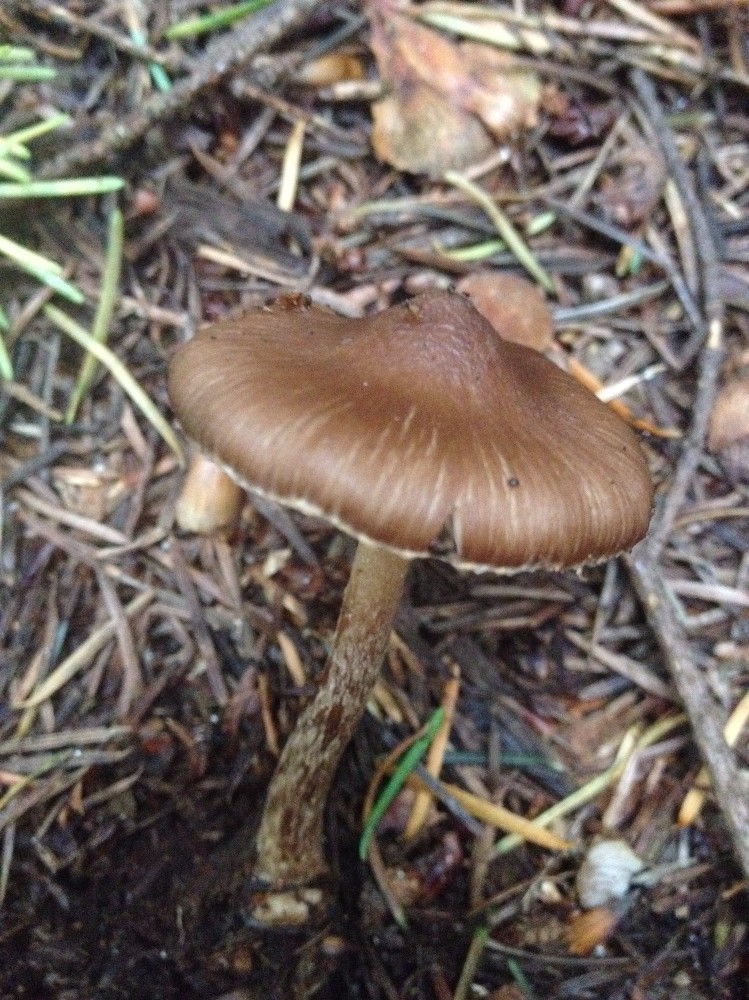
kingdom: Fungi
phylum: Basidiomycota
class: Agaricomycetes
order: Agaricales
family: Inocybaceae
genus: Inocybe
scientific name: Inocybe napipes
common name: roeknoldet trævlhat
